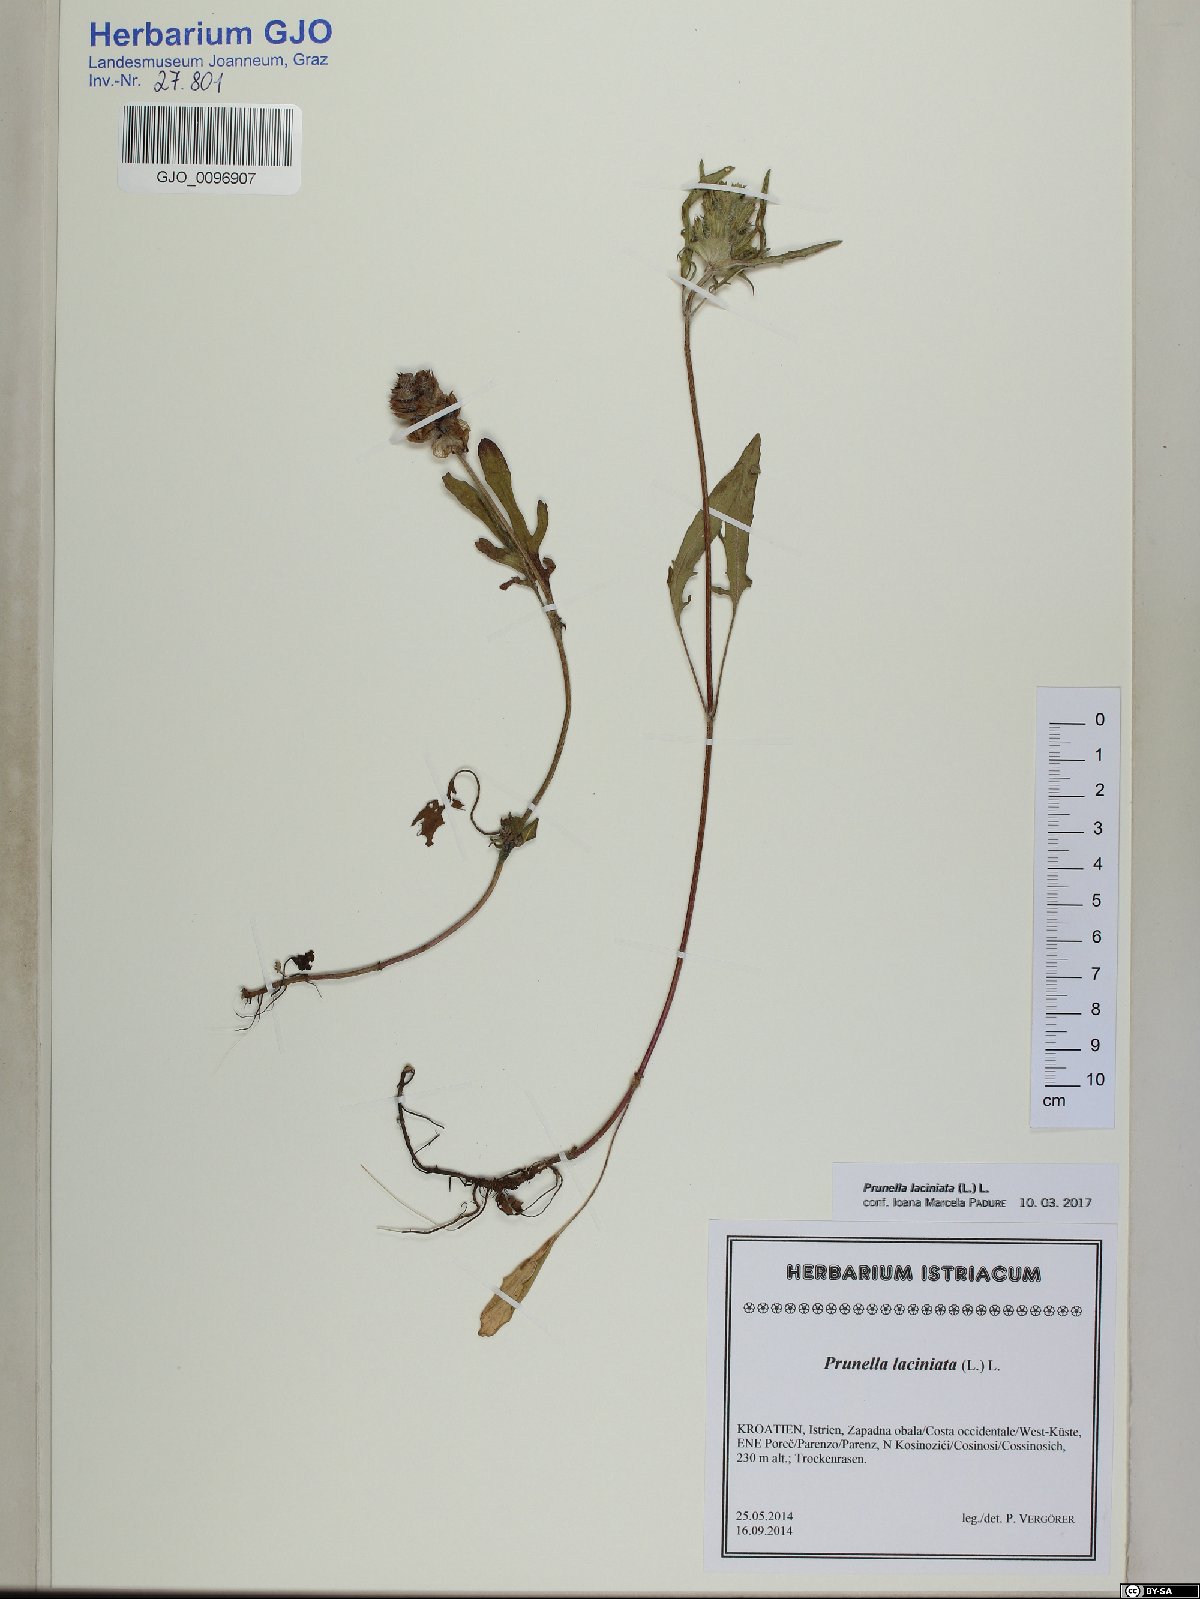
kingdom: Plantae
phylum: Tracheophyta
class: Magnoliopsida
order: Lamiales
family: Lamiaceae
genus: Prunella
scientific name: Prunella laciniata
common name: Cut-leaved selfheal
